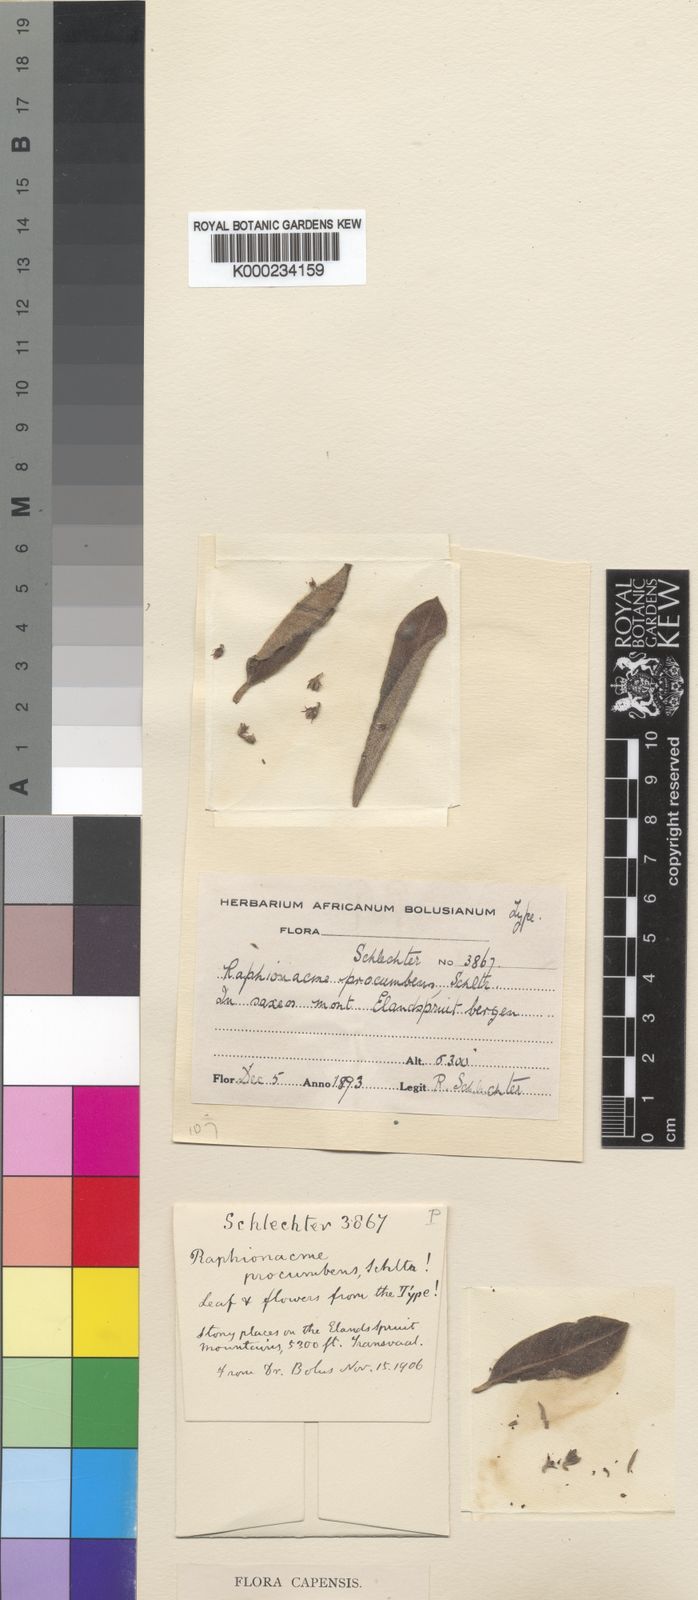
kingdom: Plantae
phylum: Tracheophyta
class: Magnoliopsida
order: Gentianales
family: Apocynaceae
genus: Raphionacme
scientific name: Raphionacme procumbens
